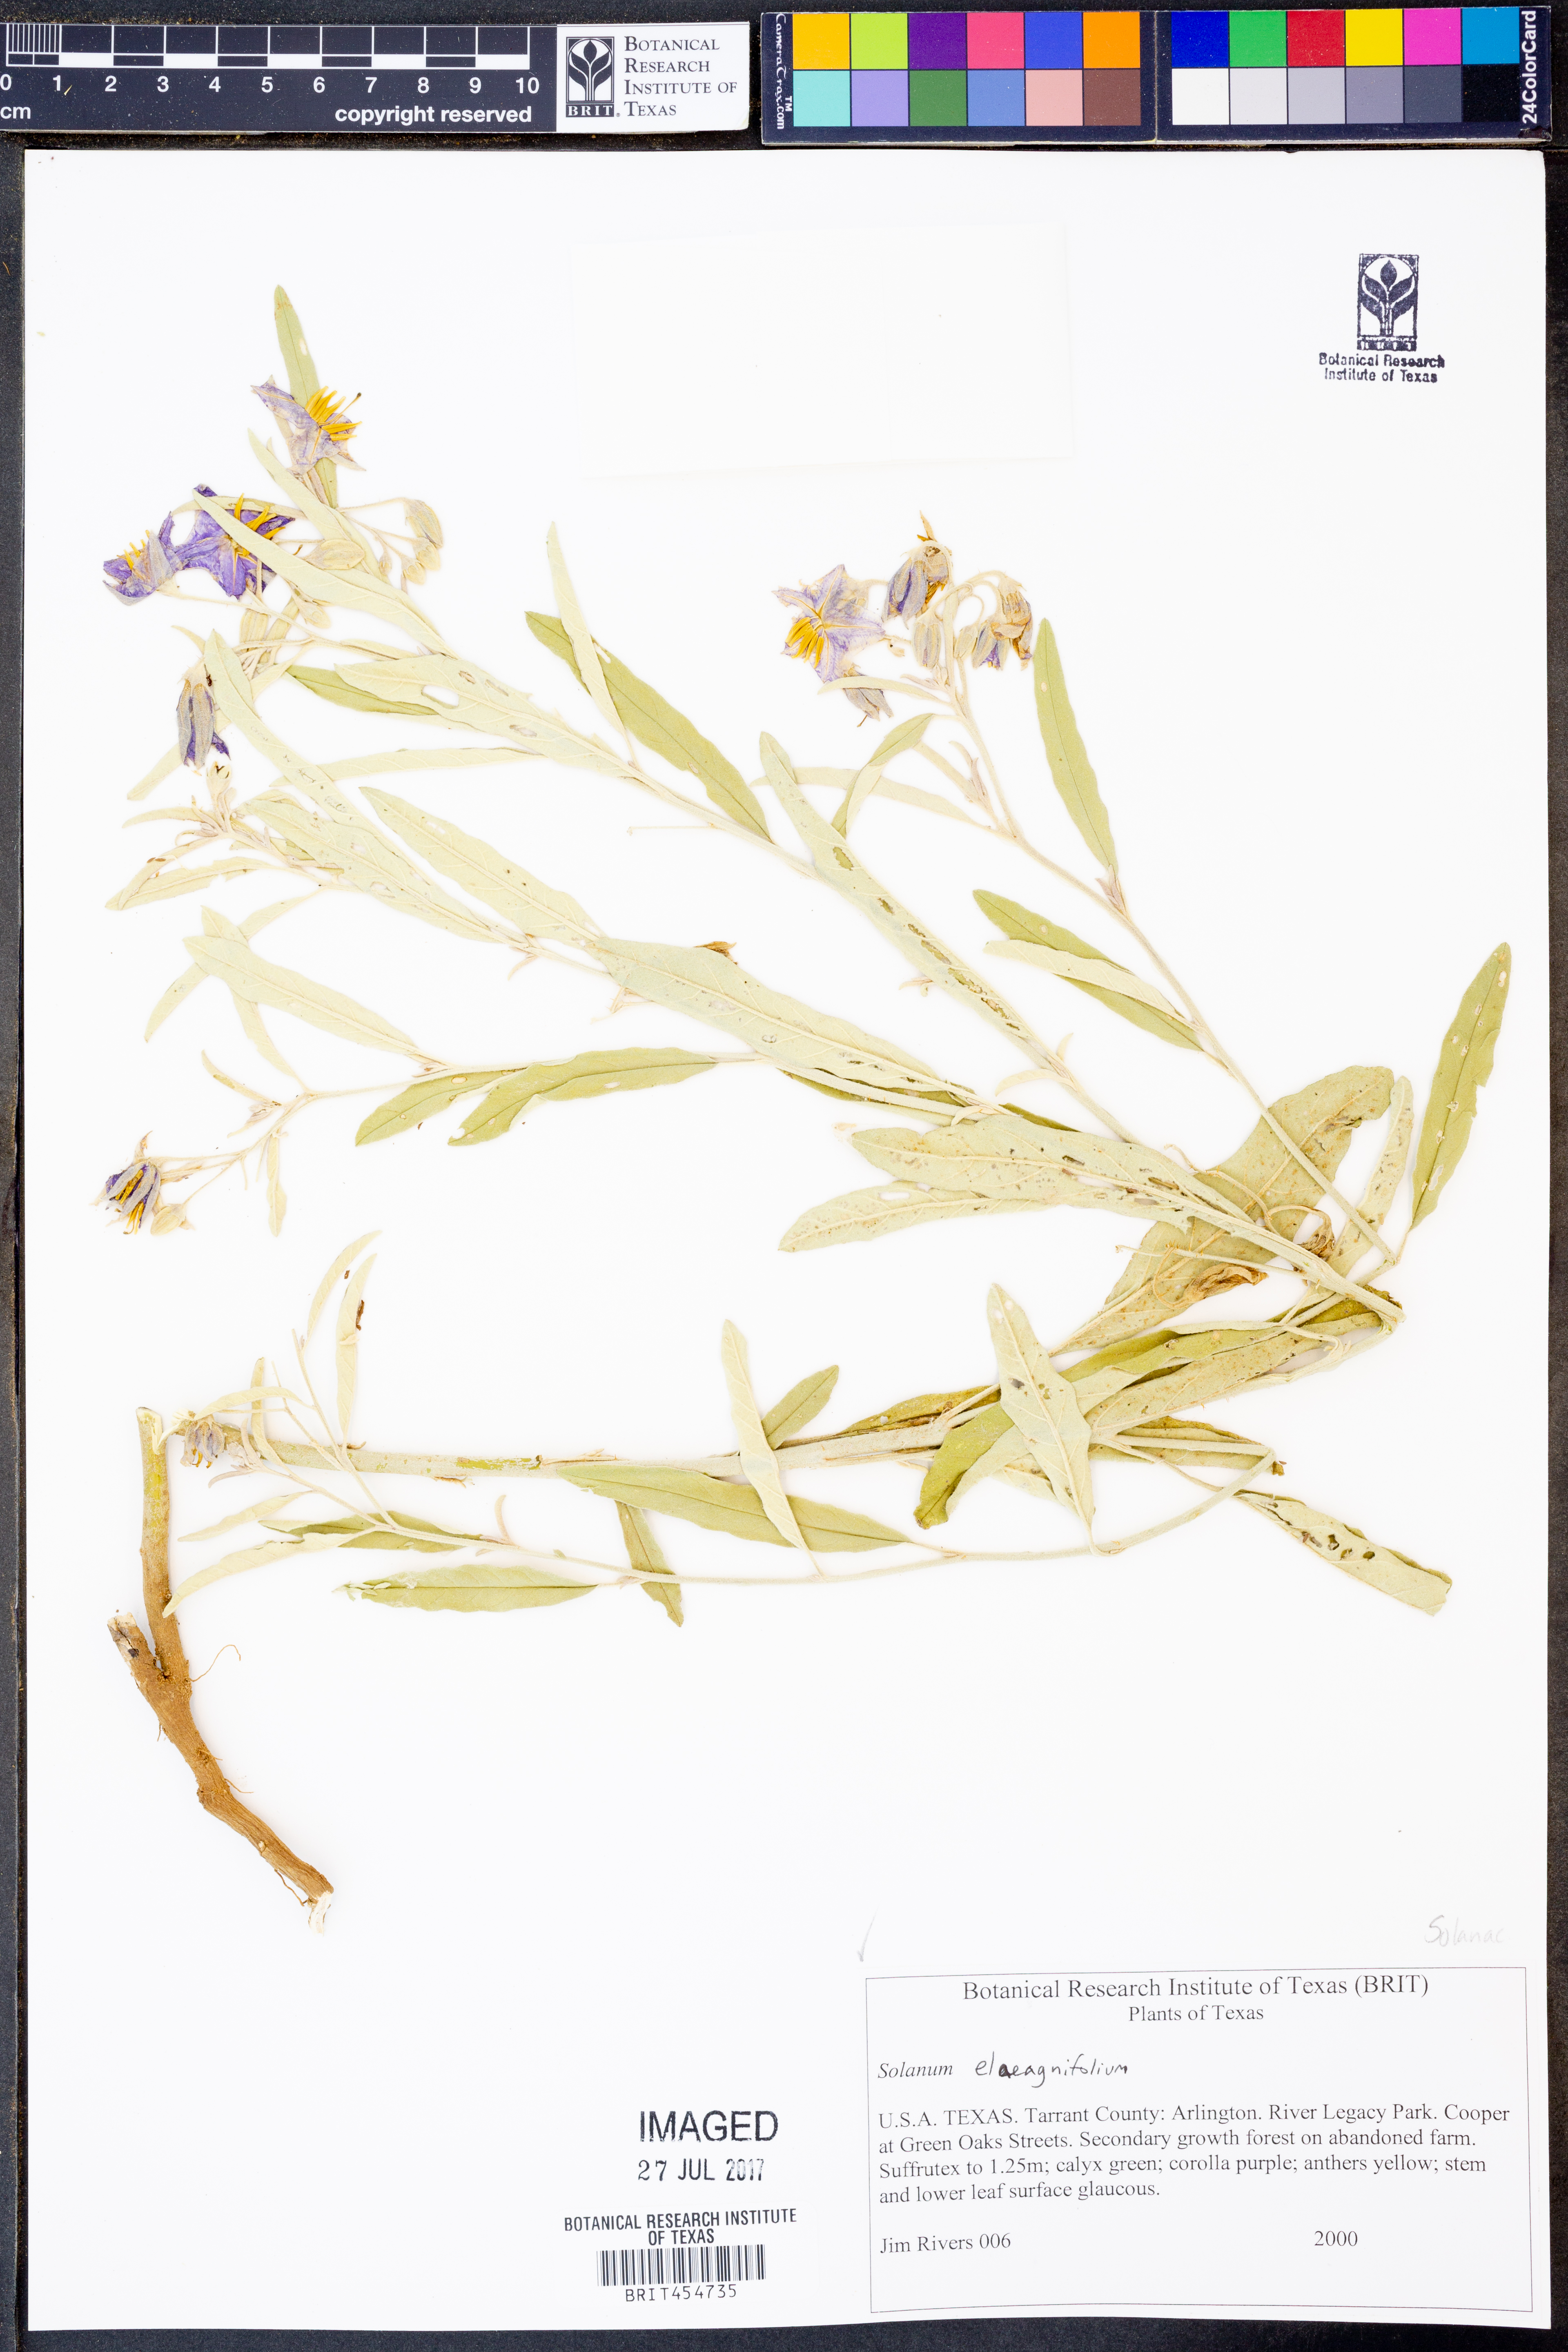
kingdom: Plantae
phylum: Tracheophyta
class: Magnoliopsida
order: Solanales
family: Solanaceae
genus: Solanum
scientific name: Solanum elaeagnifolium
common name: Silverleaf nightshade
